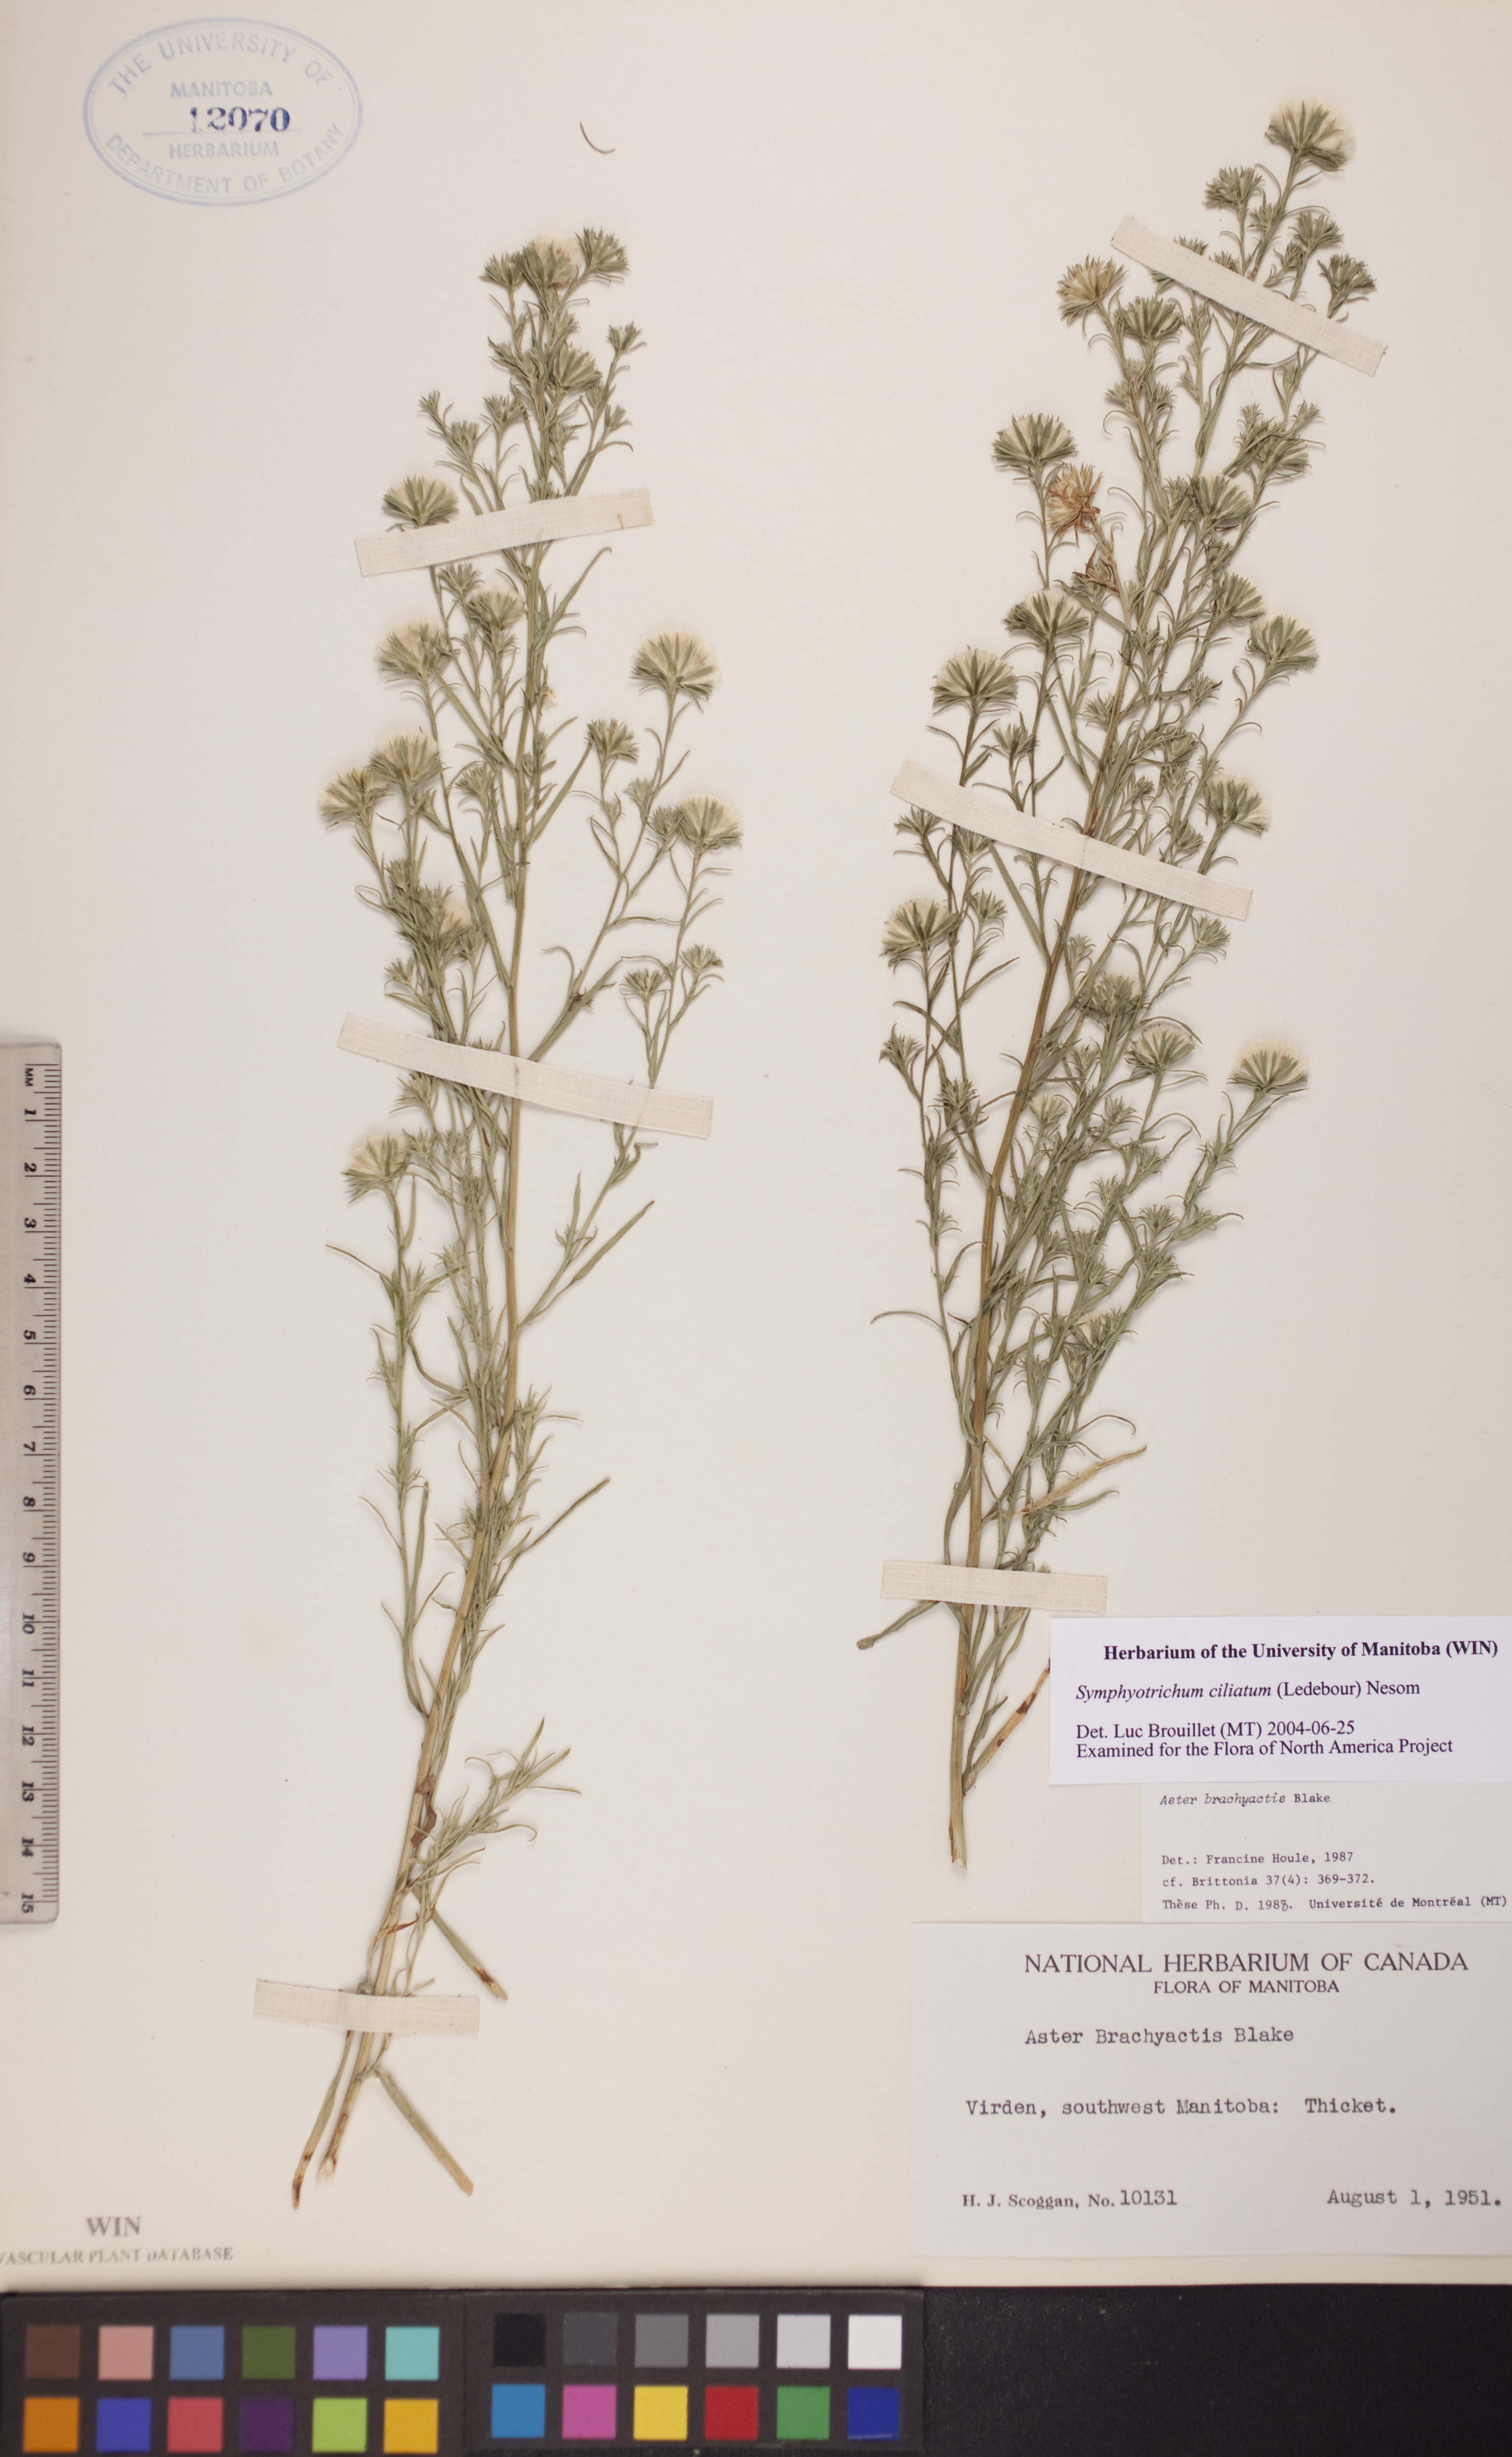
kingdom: Plantae
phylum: Tracheophyta
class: Magnoliopsida
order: Asterales
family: Asteraceae
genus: Symphyotrichum
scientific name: Symphyotrichum ciliatum
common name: Rayless annual aster
